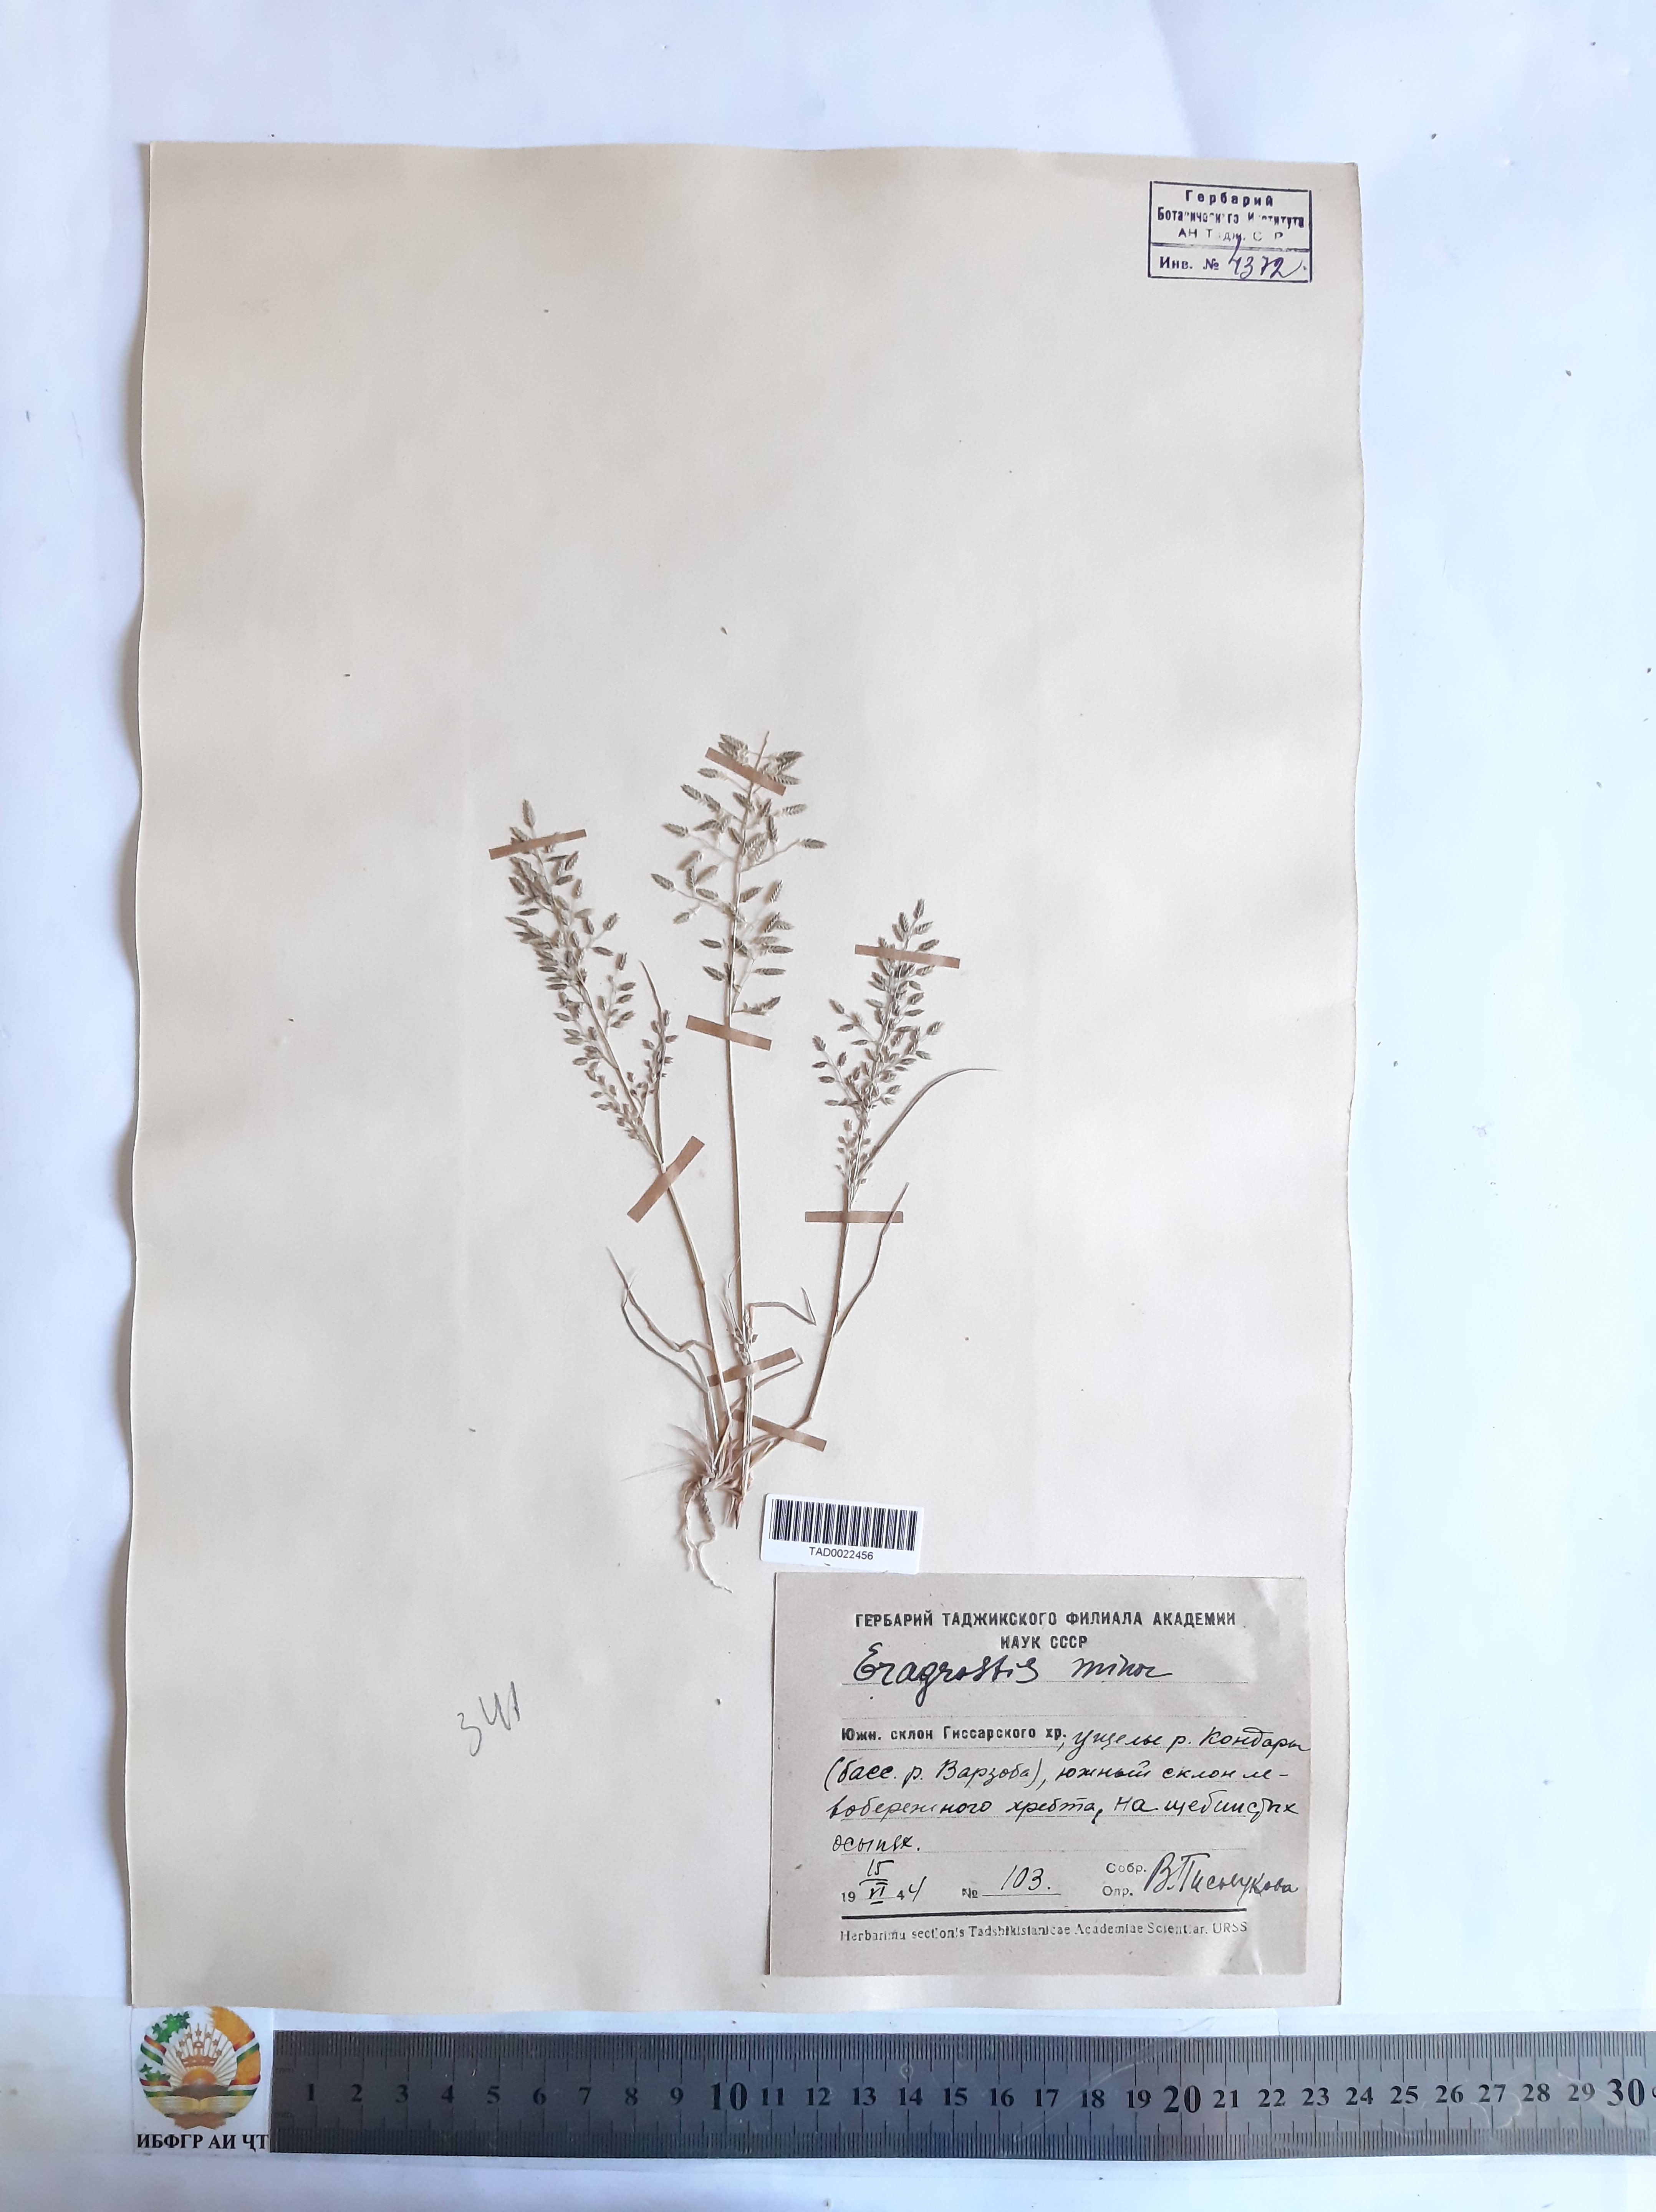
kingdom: Plantae
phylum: Tracheophyta
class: Liliopsida
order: Poales
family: Poaceae
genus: Eragrostis
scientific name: Eragrostis minor
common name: Small love-grass
